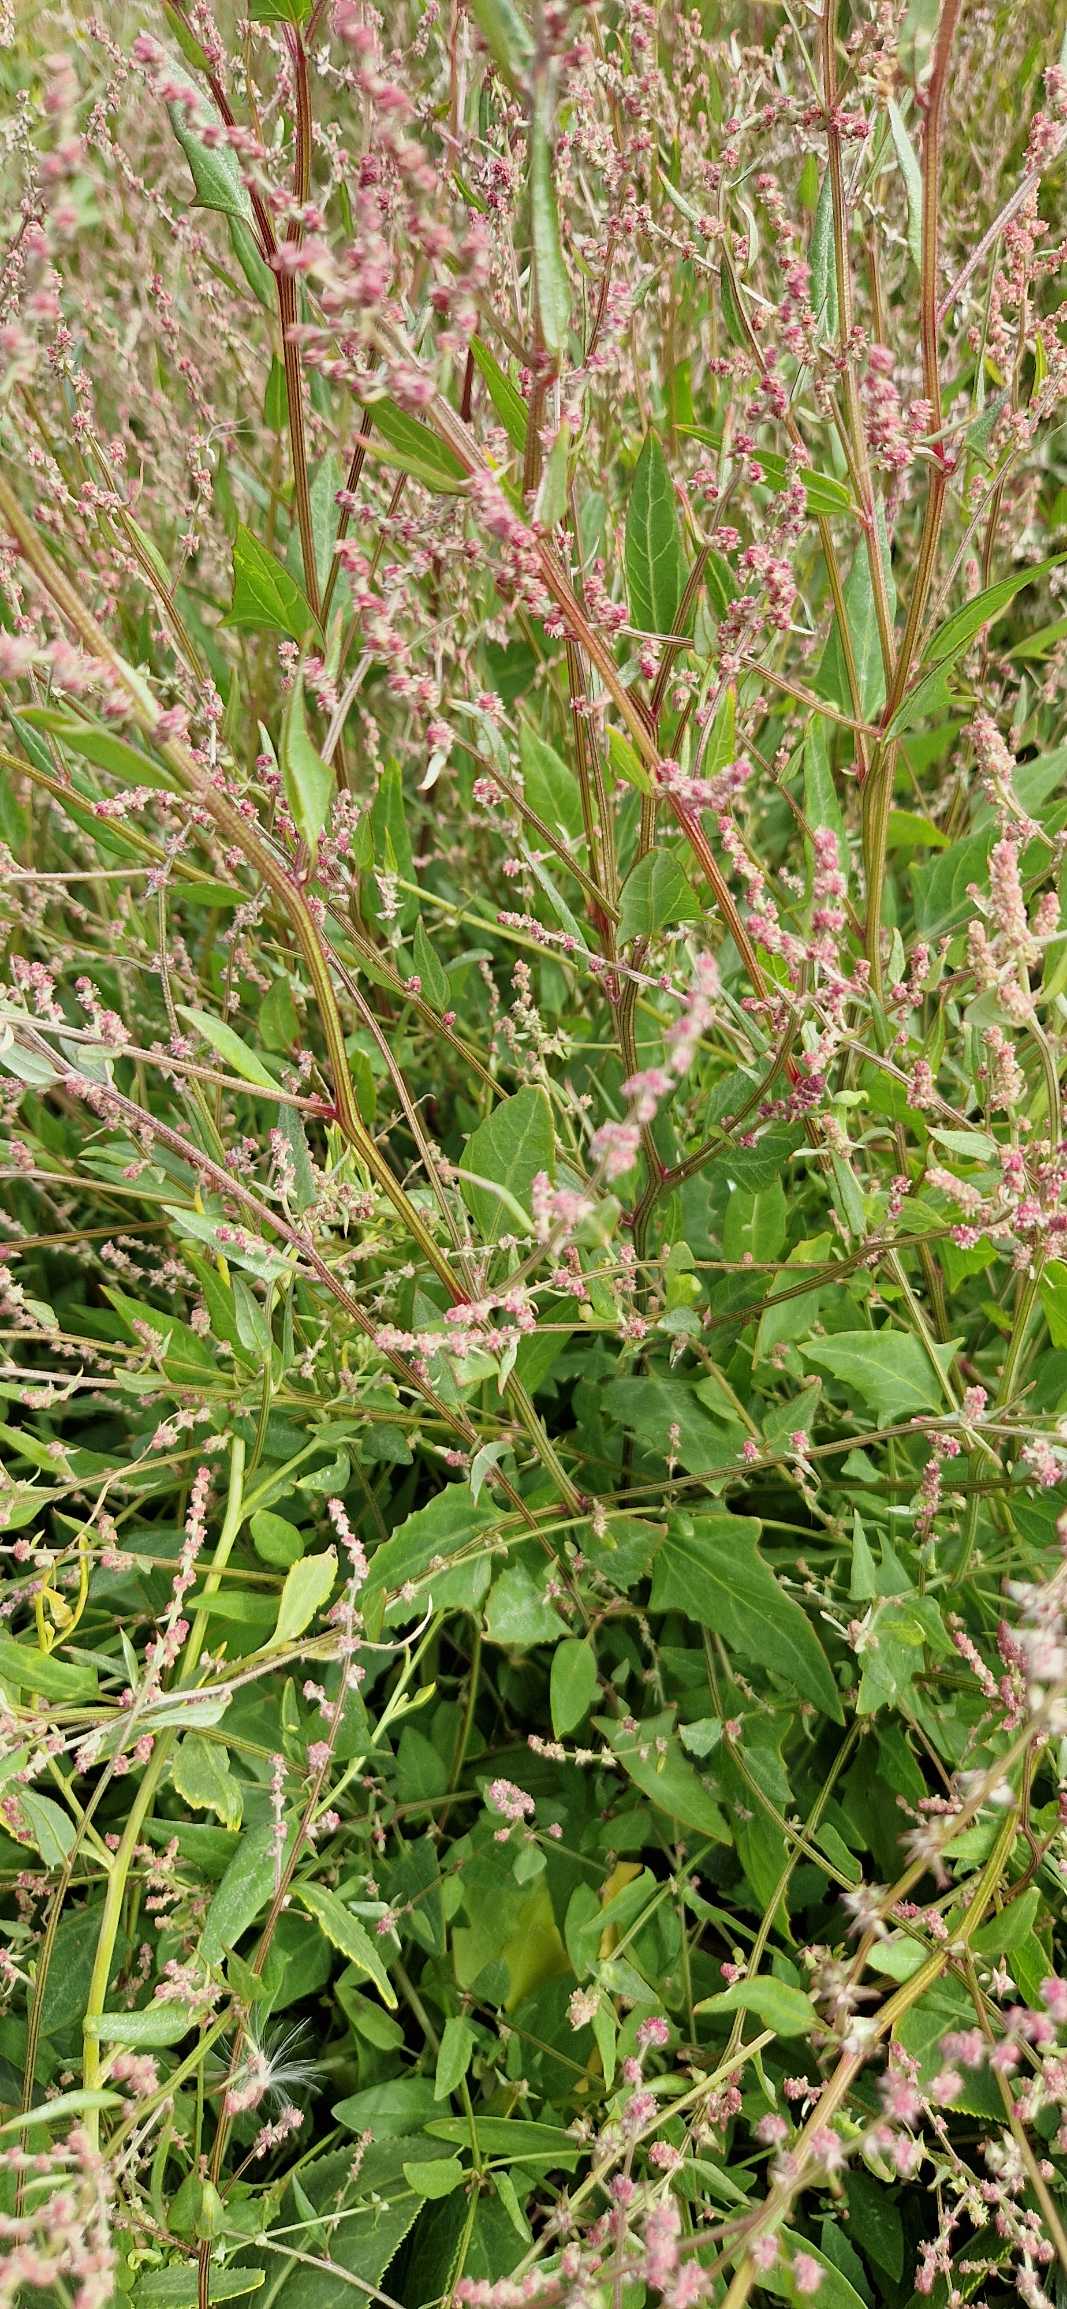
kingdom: Plantae
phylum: Tracheophyta
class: Magnoliopsida
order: Caryophyllales
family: Amaranthaceae
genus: Atriplex
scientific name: Atriplex prostrata
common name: Spyd-mælde
